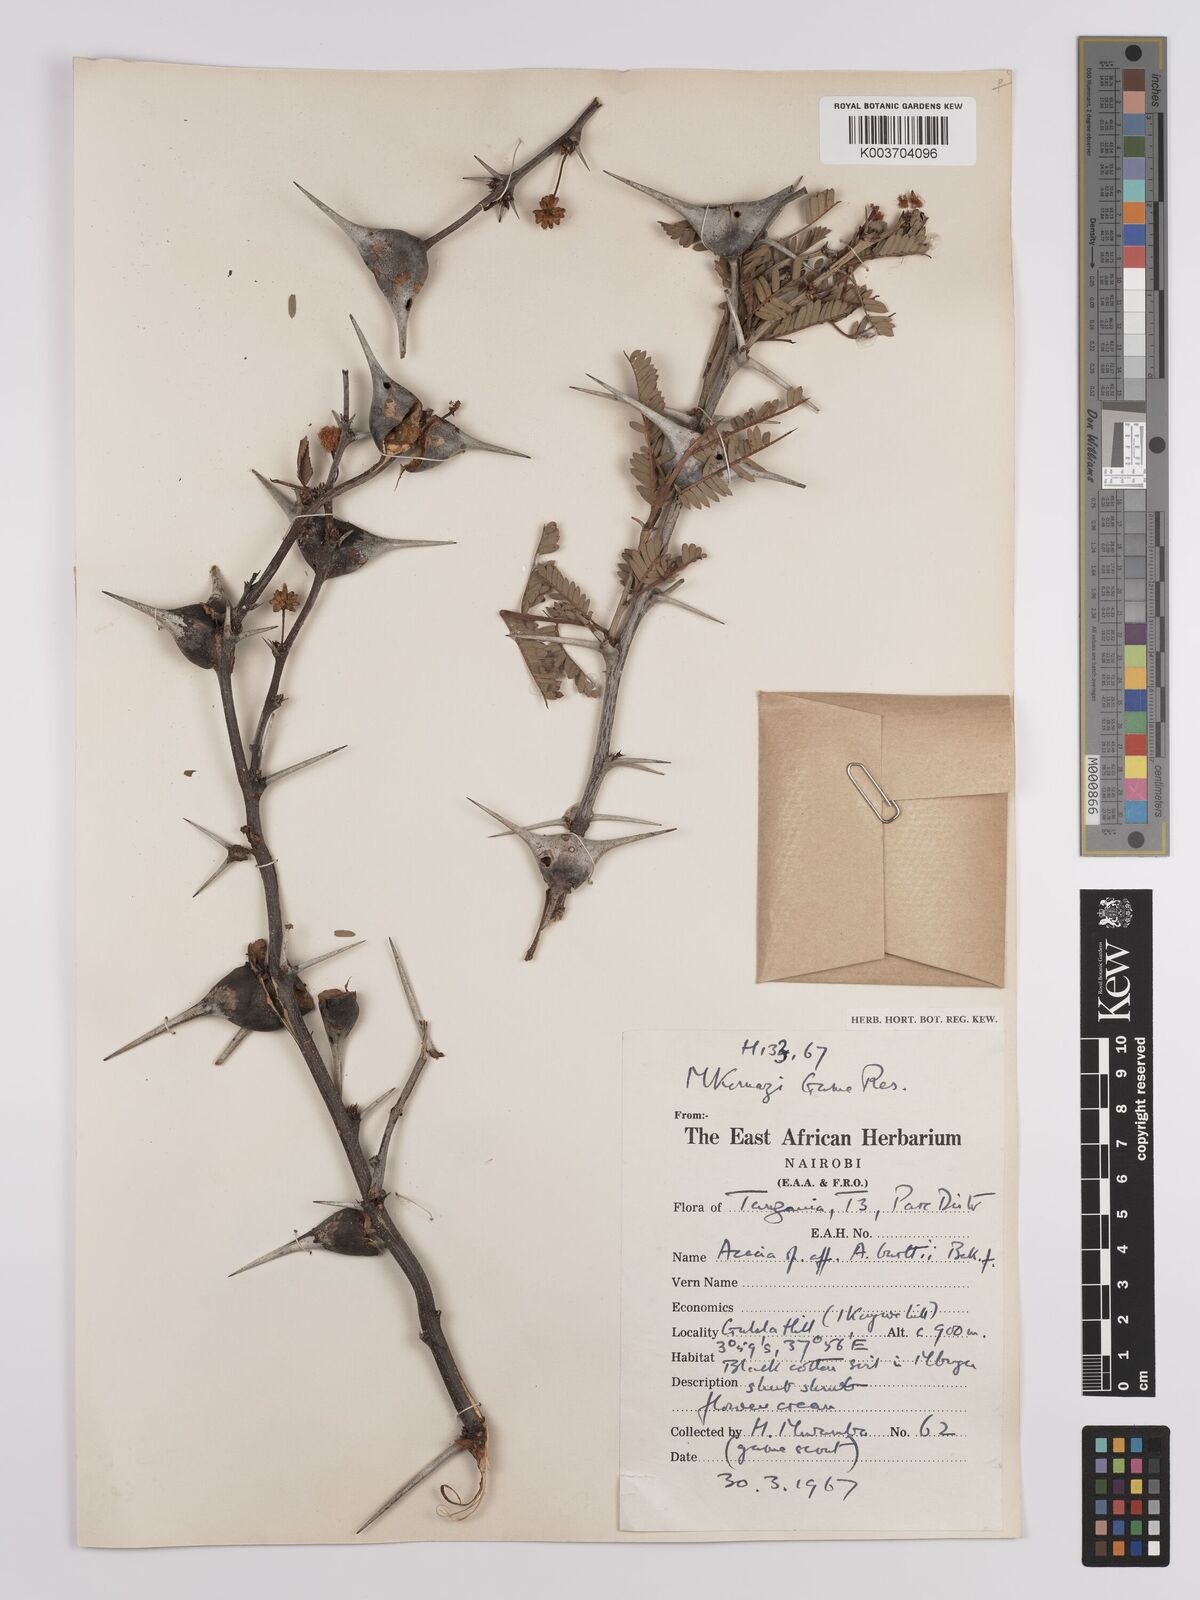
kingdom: Plantae
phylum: Tracheophyta
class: Magnoliopsida
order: Fabales
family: Fabaceae
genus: Vachellia
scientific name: Vachellia burttii
